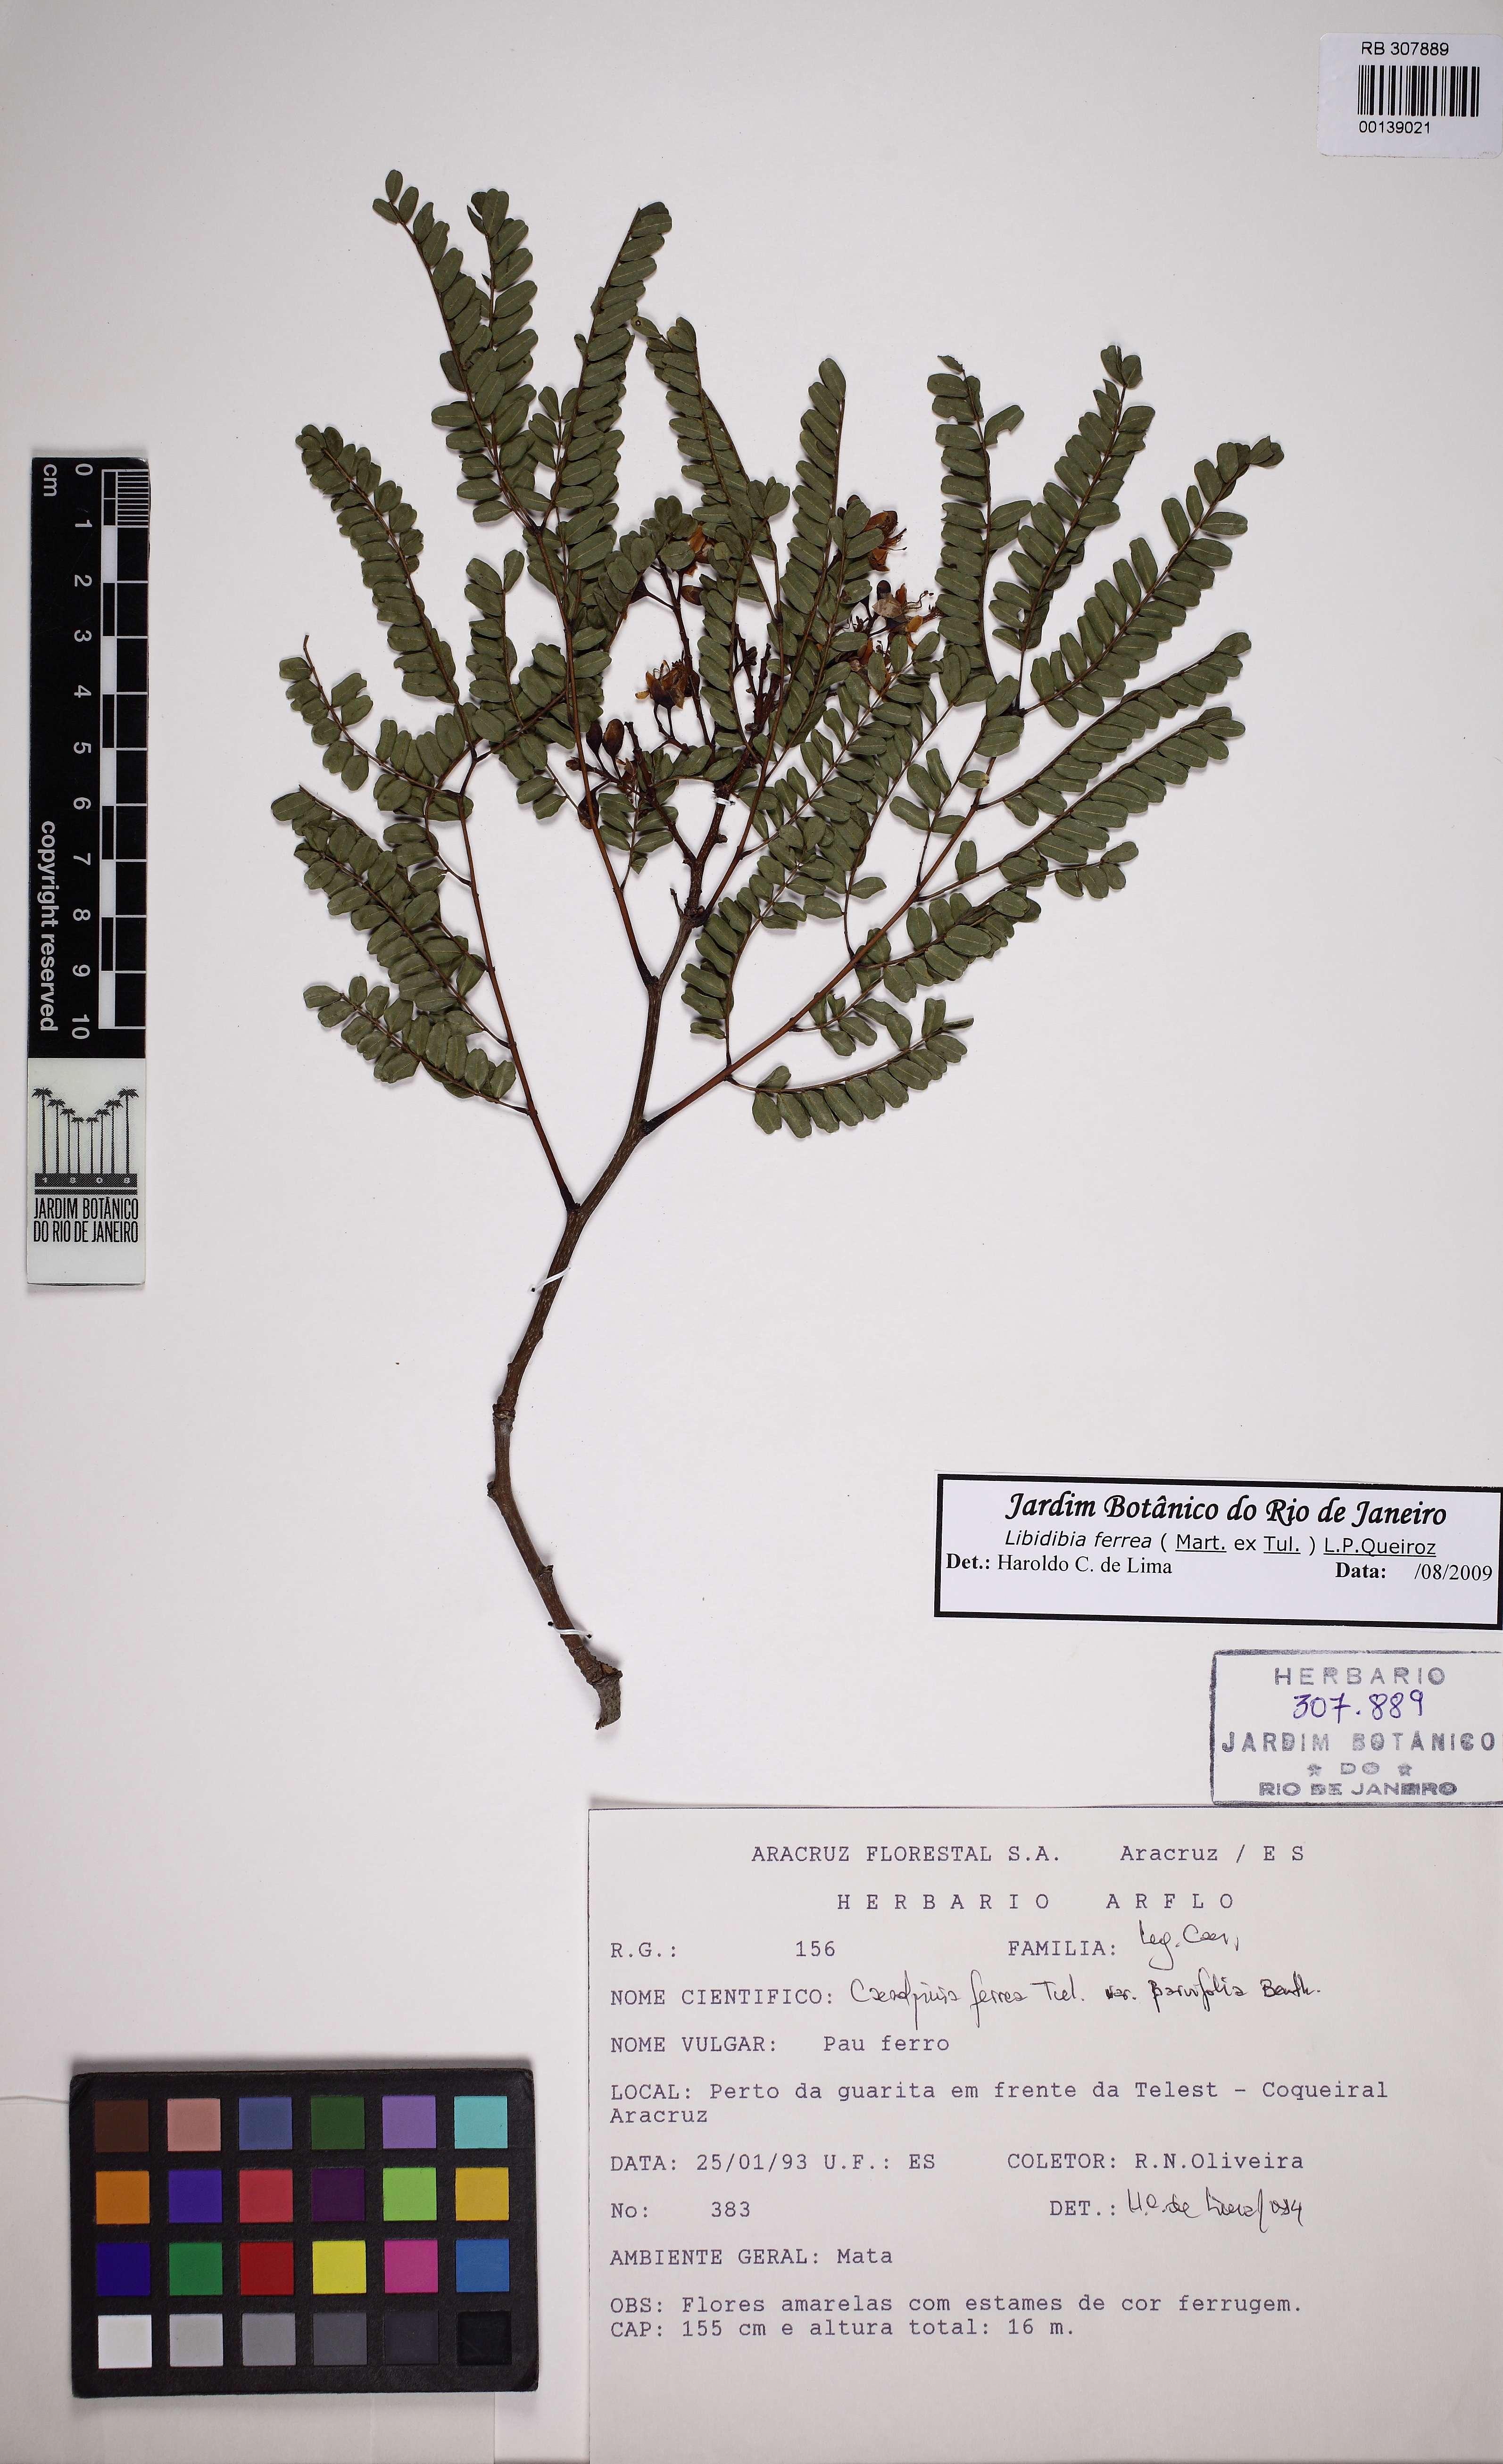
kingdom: Plantae
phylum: Tracheophyta
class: Magnoliopsida
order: Fabales
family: Fabaceae
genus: Libidibia
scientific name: Libidibia ferrea
